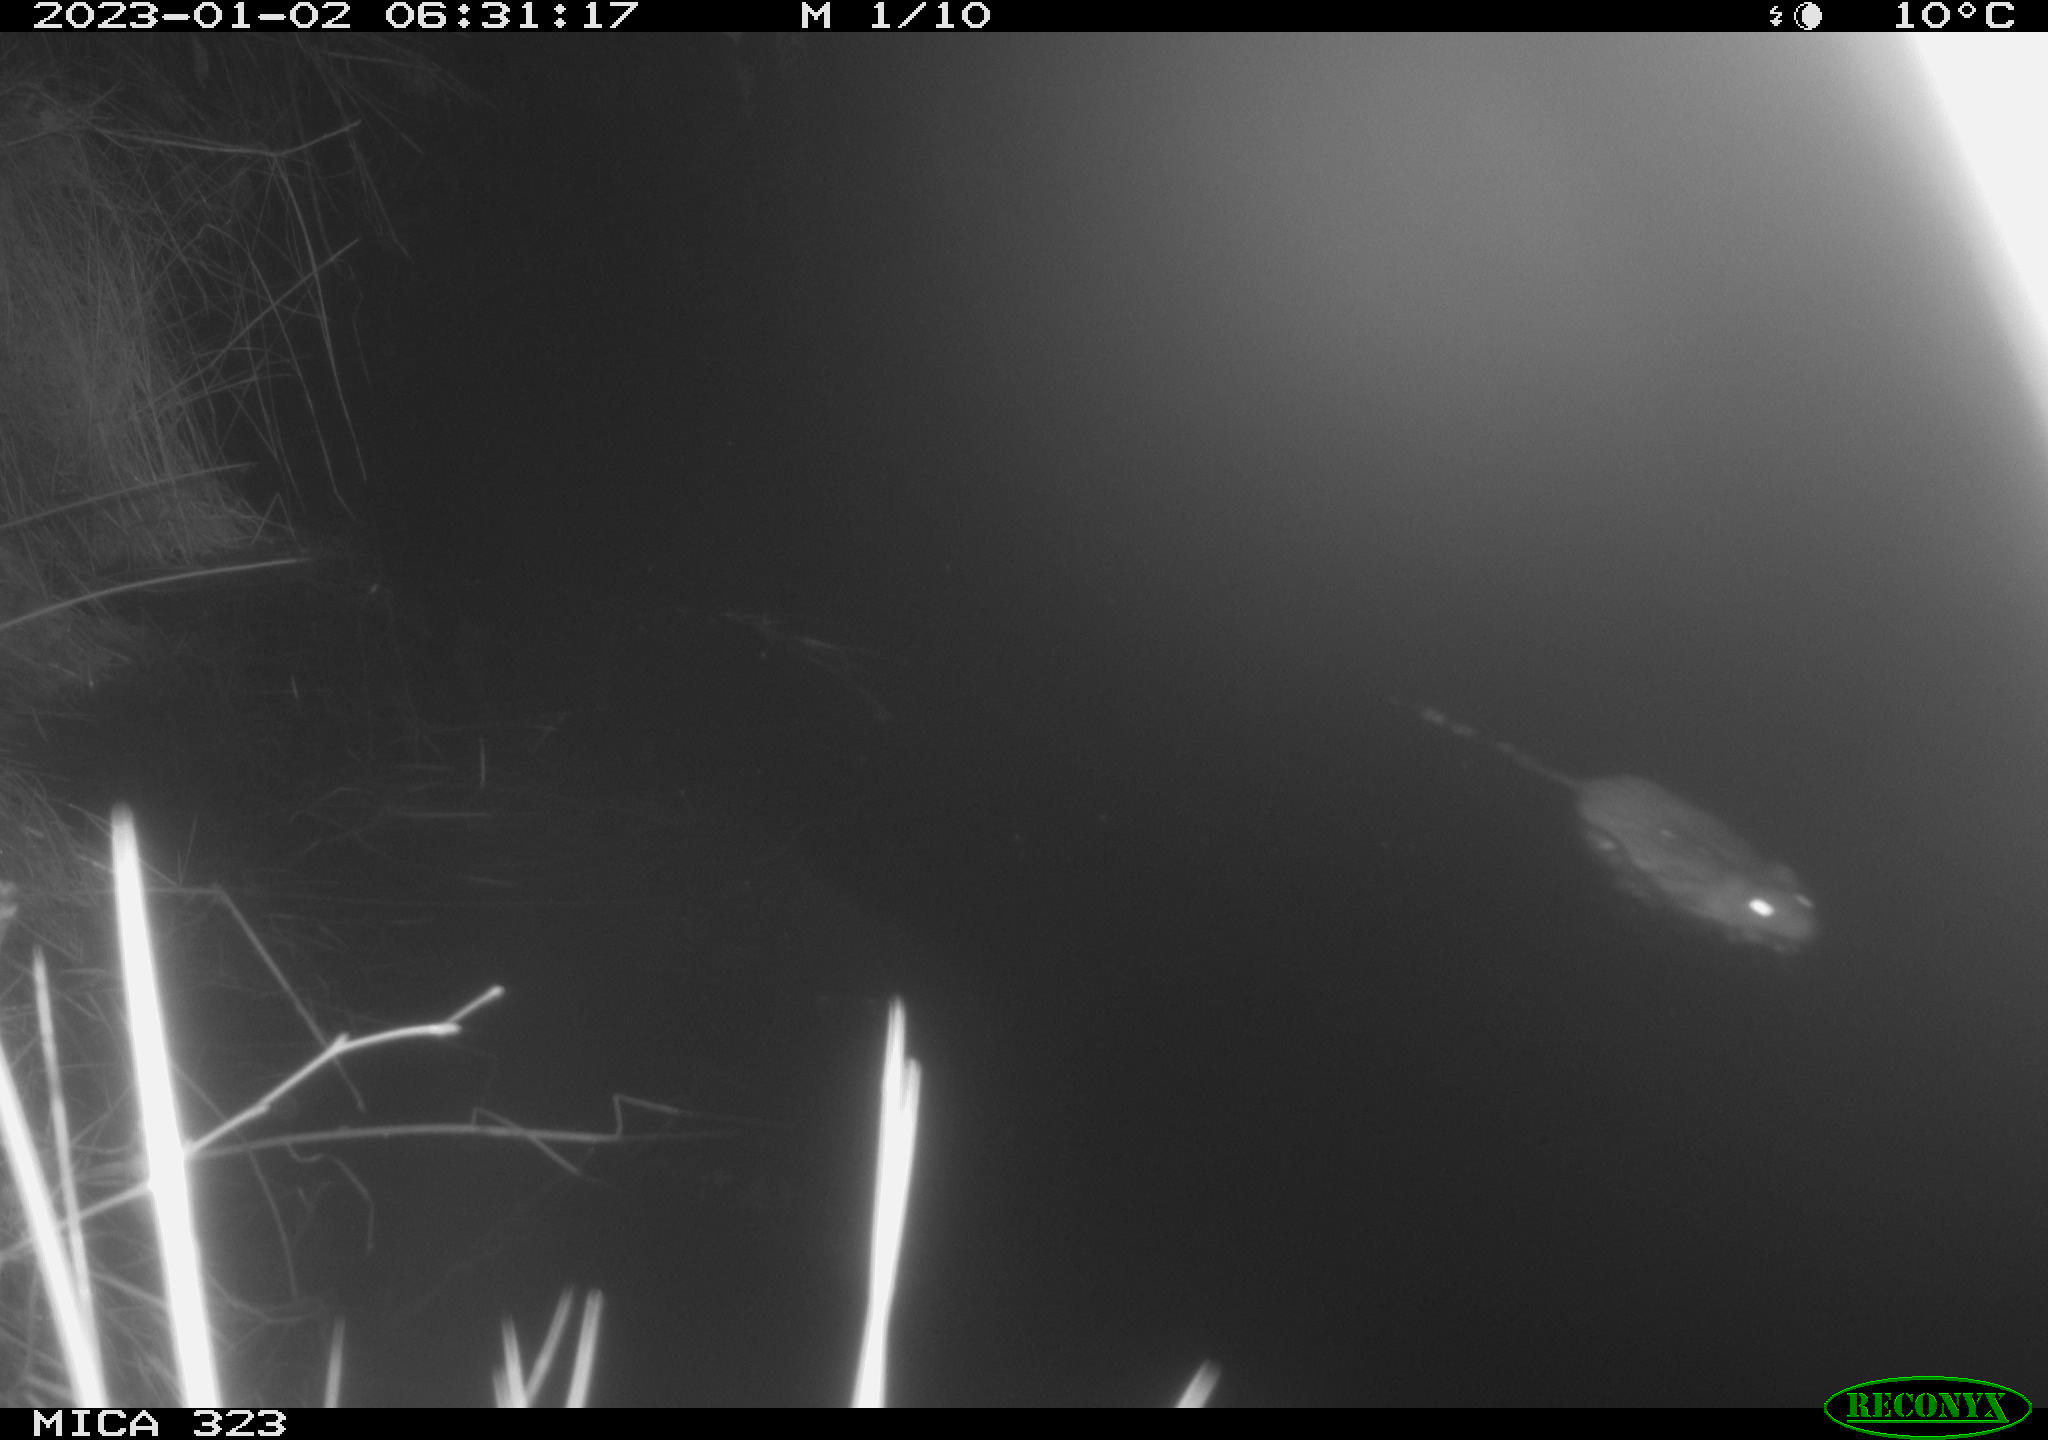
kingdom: Animalia
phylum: Chordata
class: Mammalia
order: Rodentia
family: Cricetidae
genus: Ondatra
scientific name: Ondatra zibethicus
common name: Muskrat
